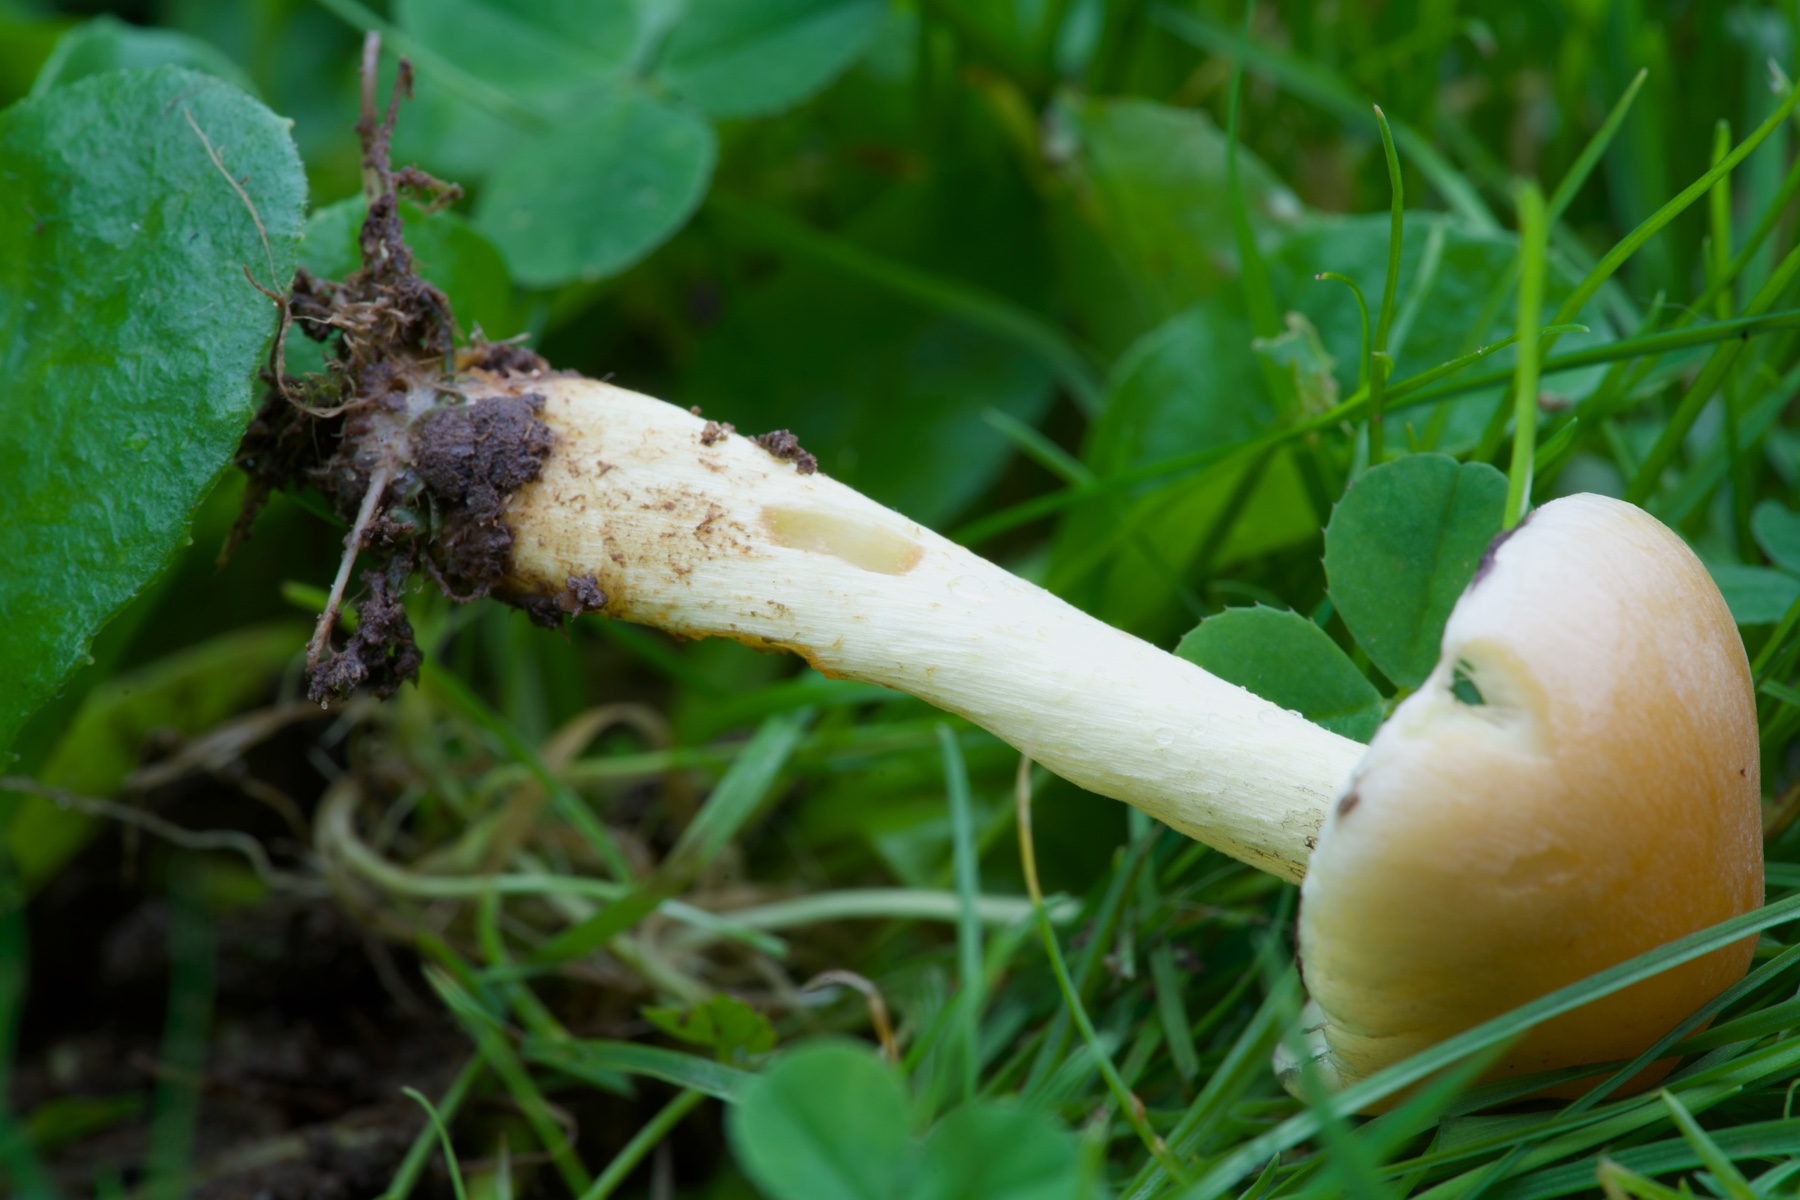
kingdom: Fungi
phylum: Basidiomycota
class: Agaricomycetes
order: Agaricales
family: Strophariaceae
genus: Hypholoma
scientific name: Hypholoma fasciculare
